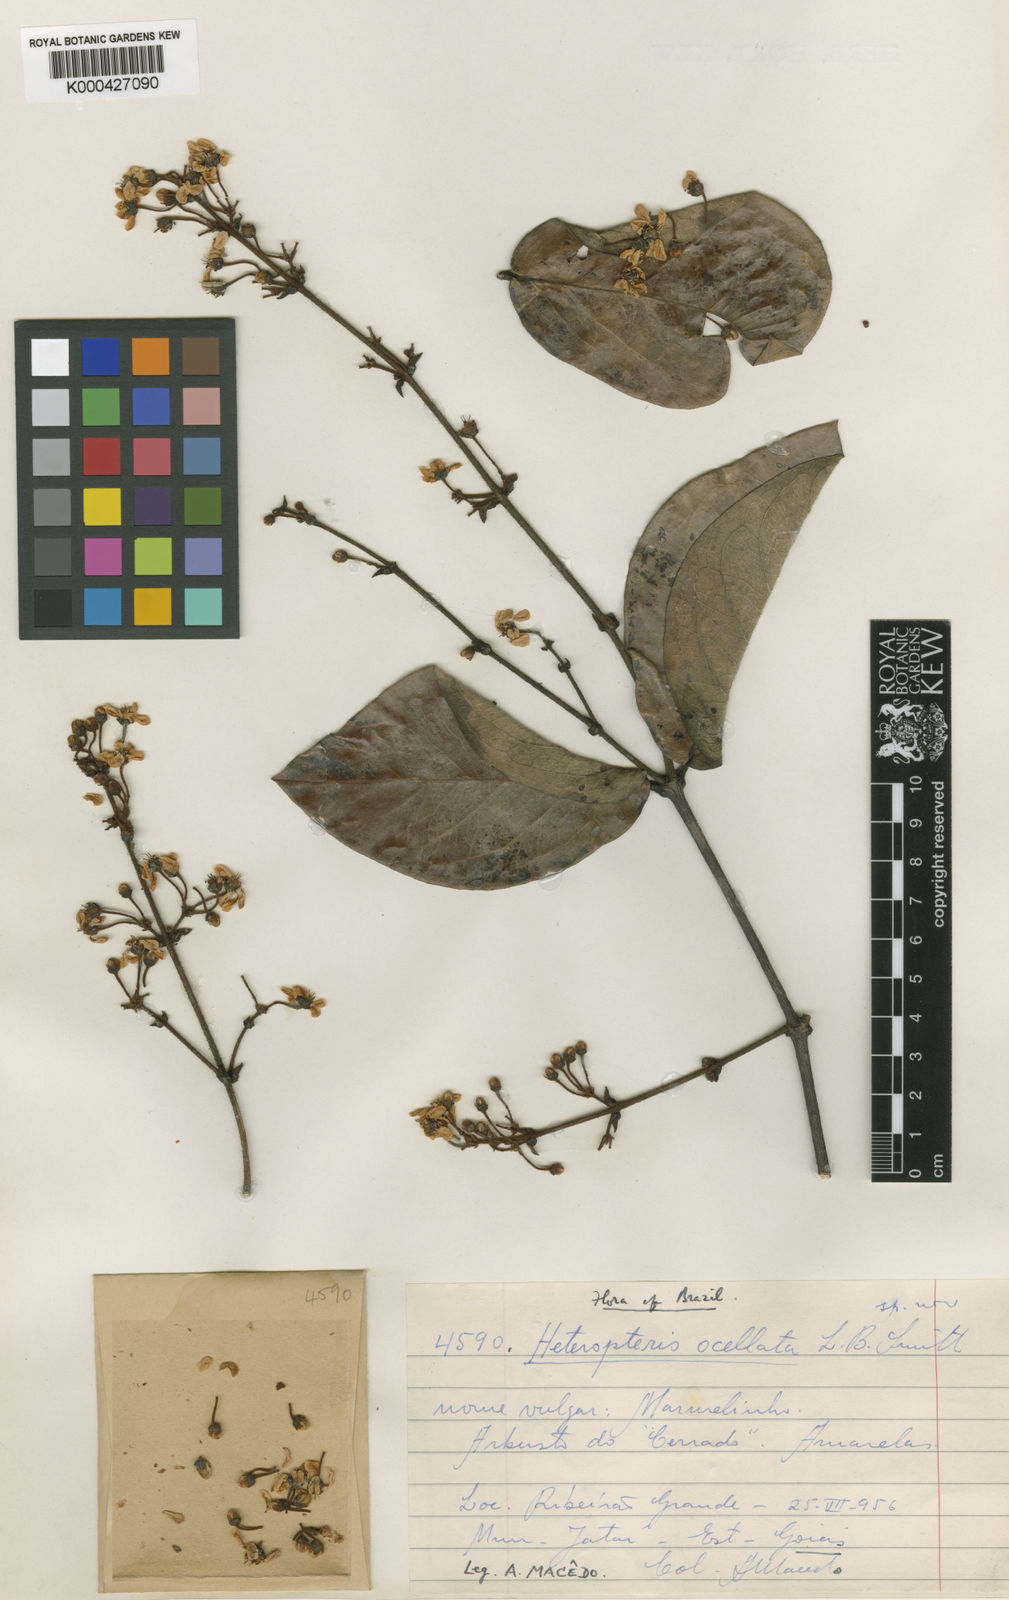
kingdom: Plantae
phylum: Tracheophyta
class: Magnoliopsida
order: Malpighiales
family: Malpighiaceae
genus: Heteropterys
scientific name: Heteropterys ocellata
